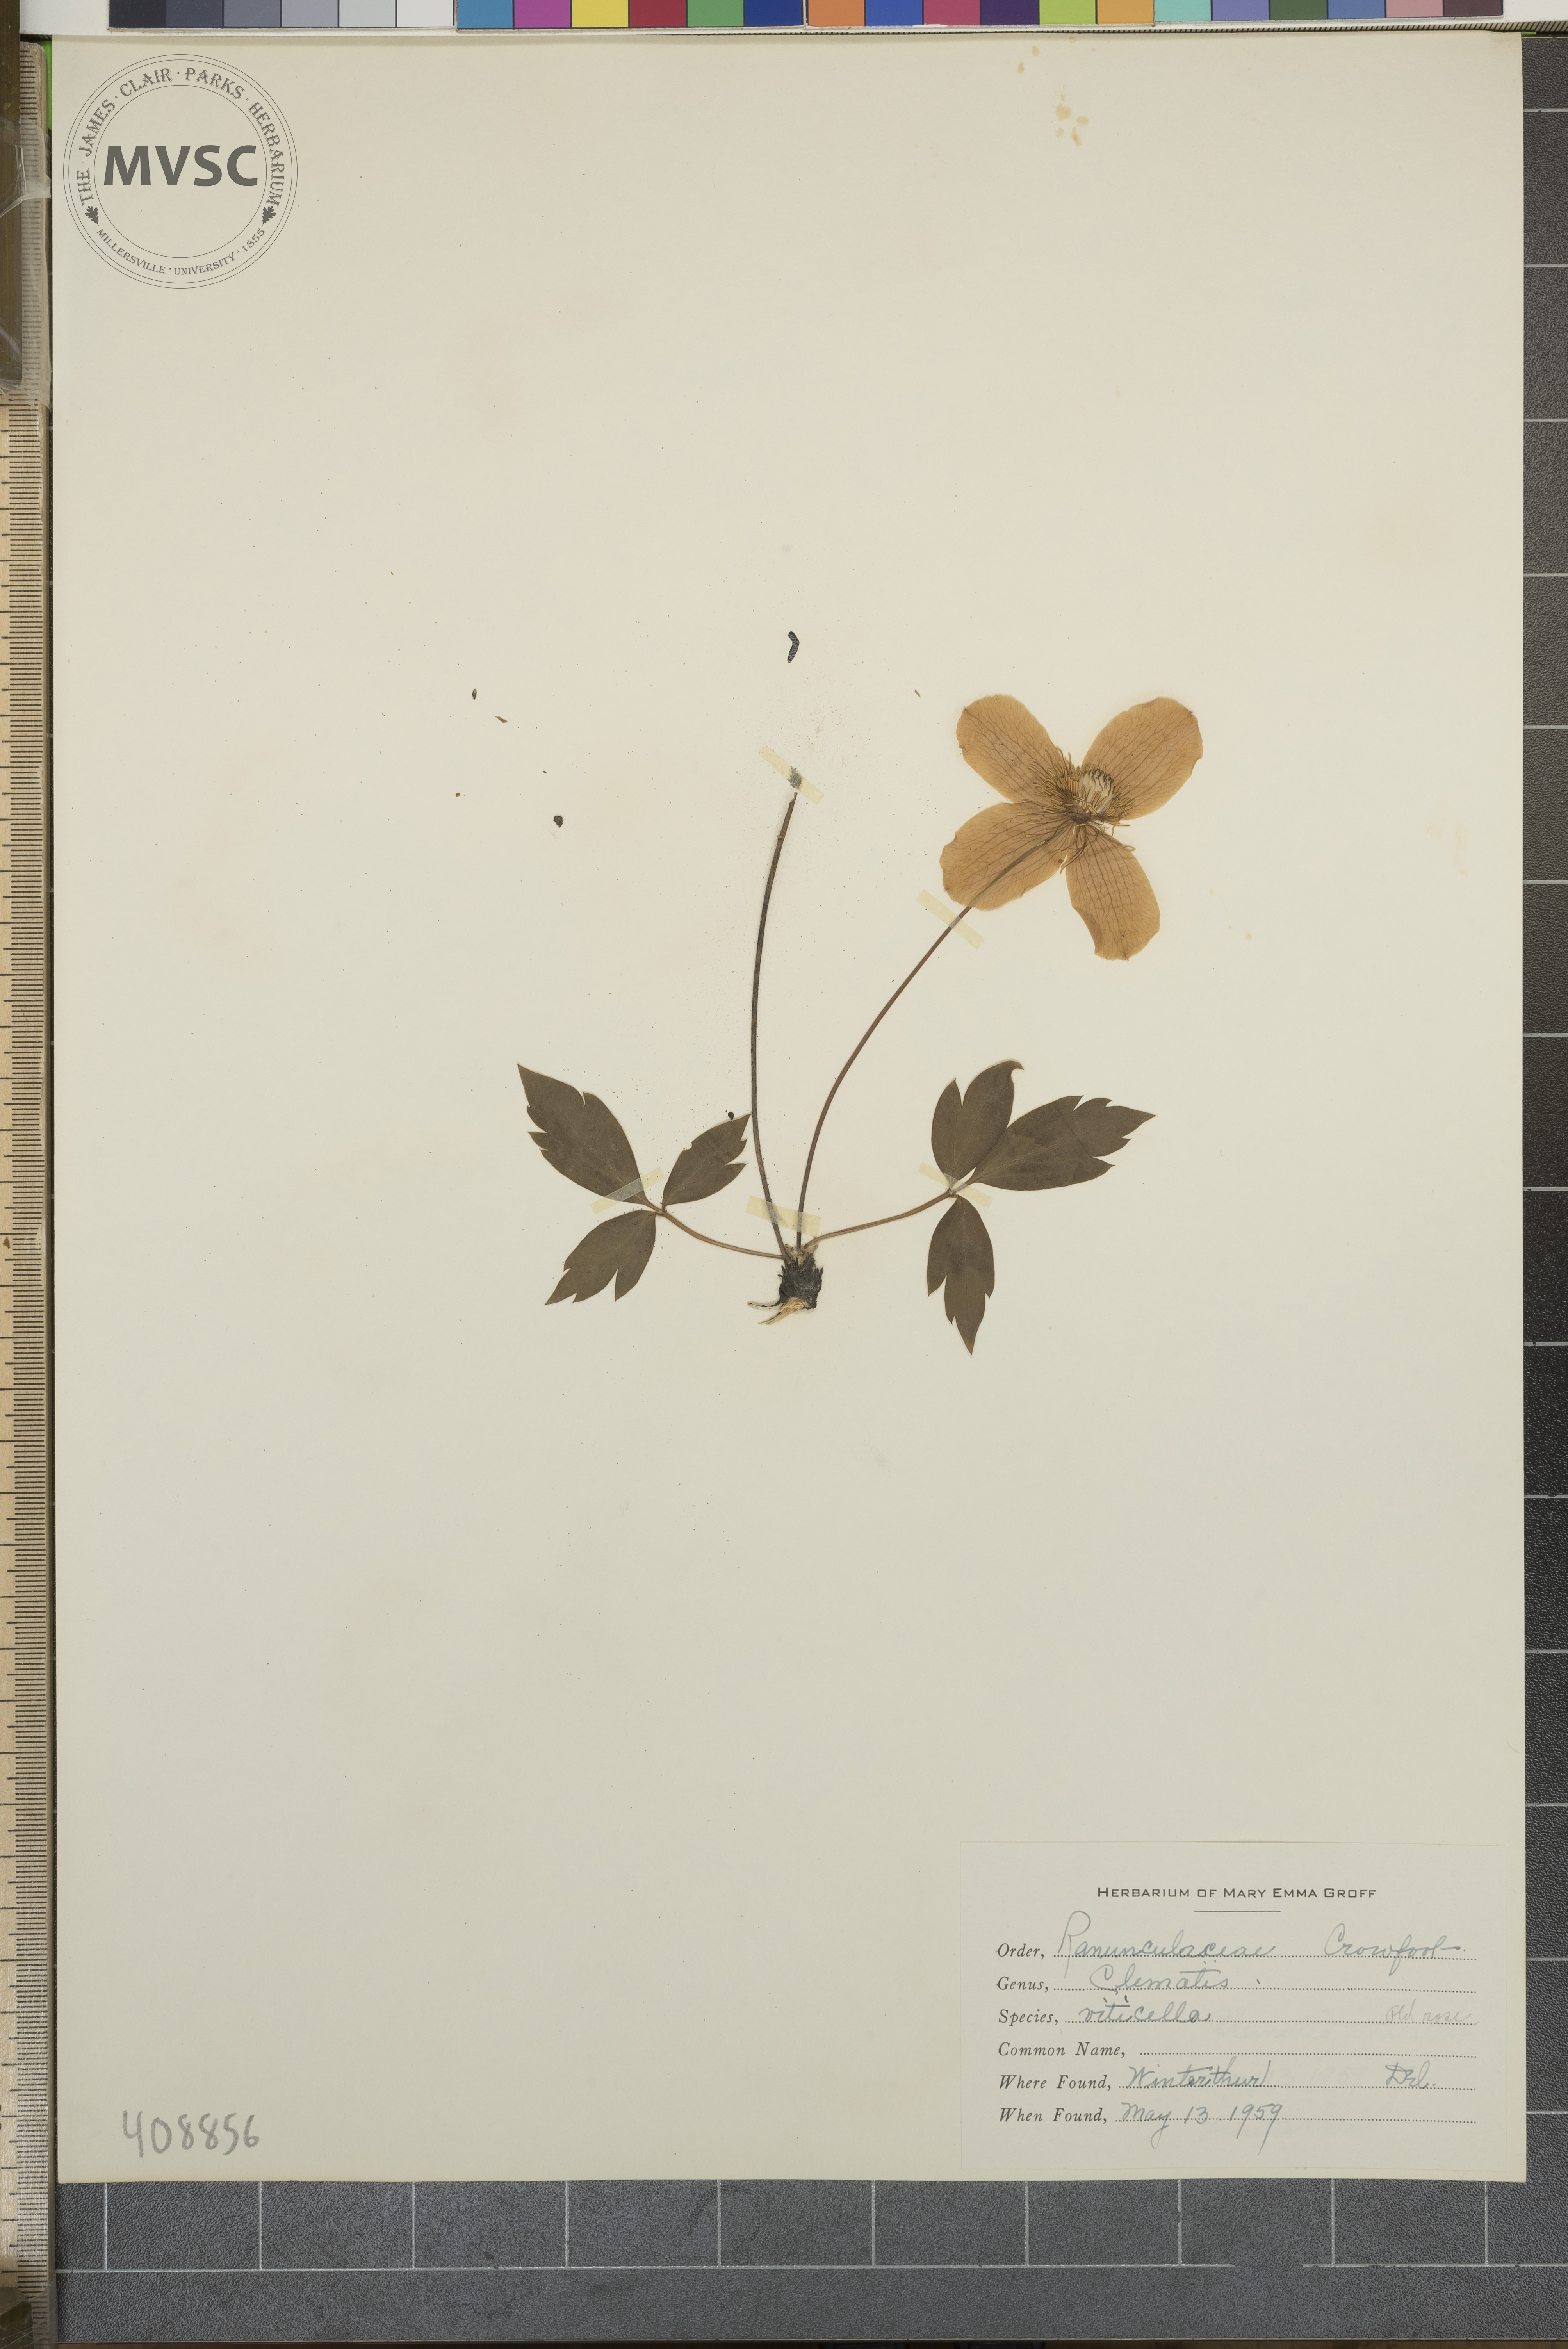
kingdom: Plantae
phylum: Tracheophyta
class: Magnoliopsida
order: Ranunculales
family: Ranunculaceae
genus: Clematis
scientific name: Clematis viticella
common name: Purple clematis
